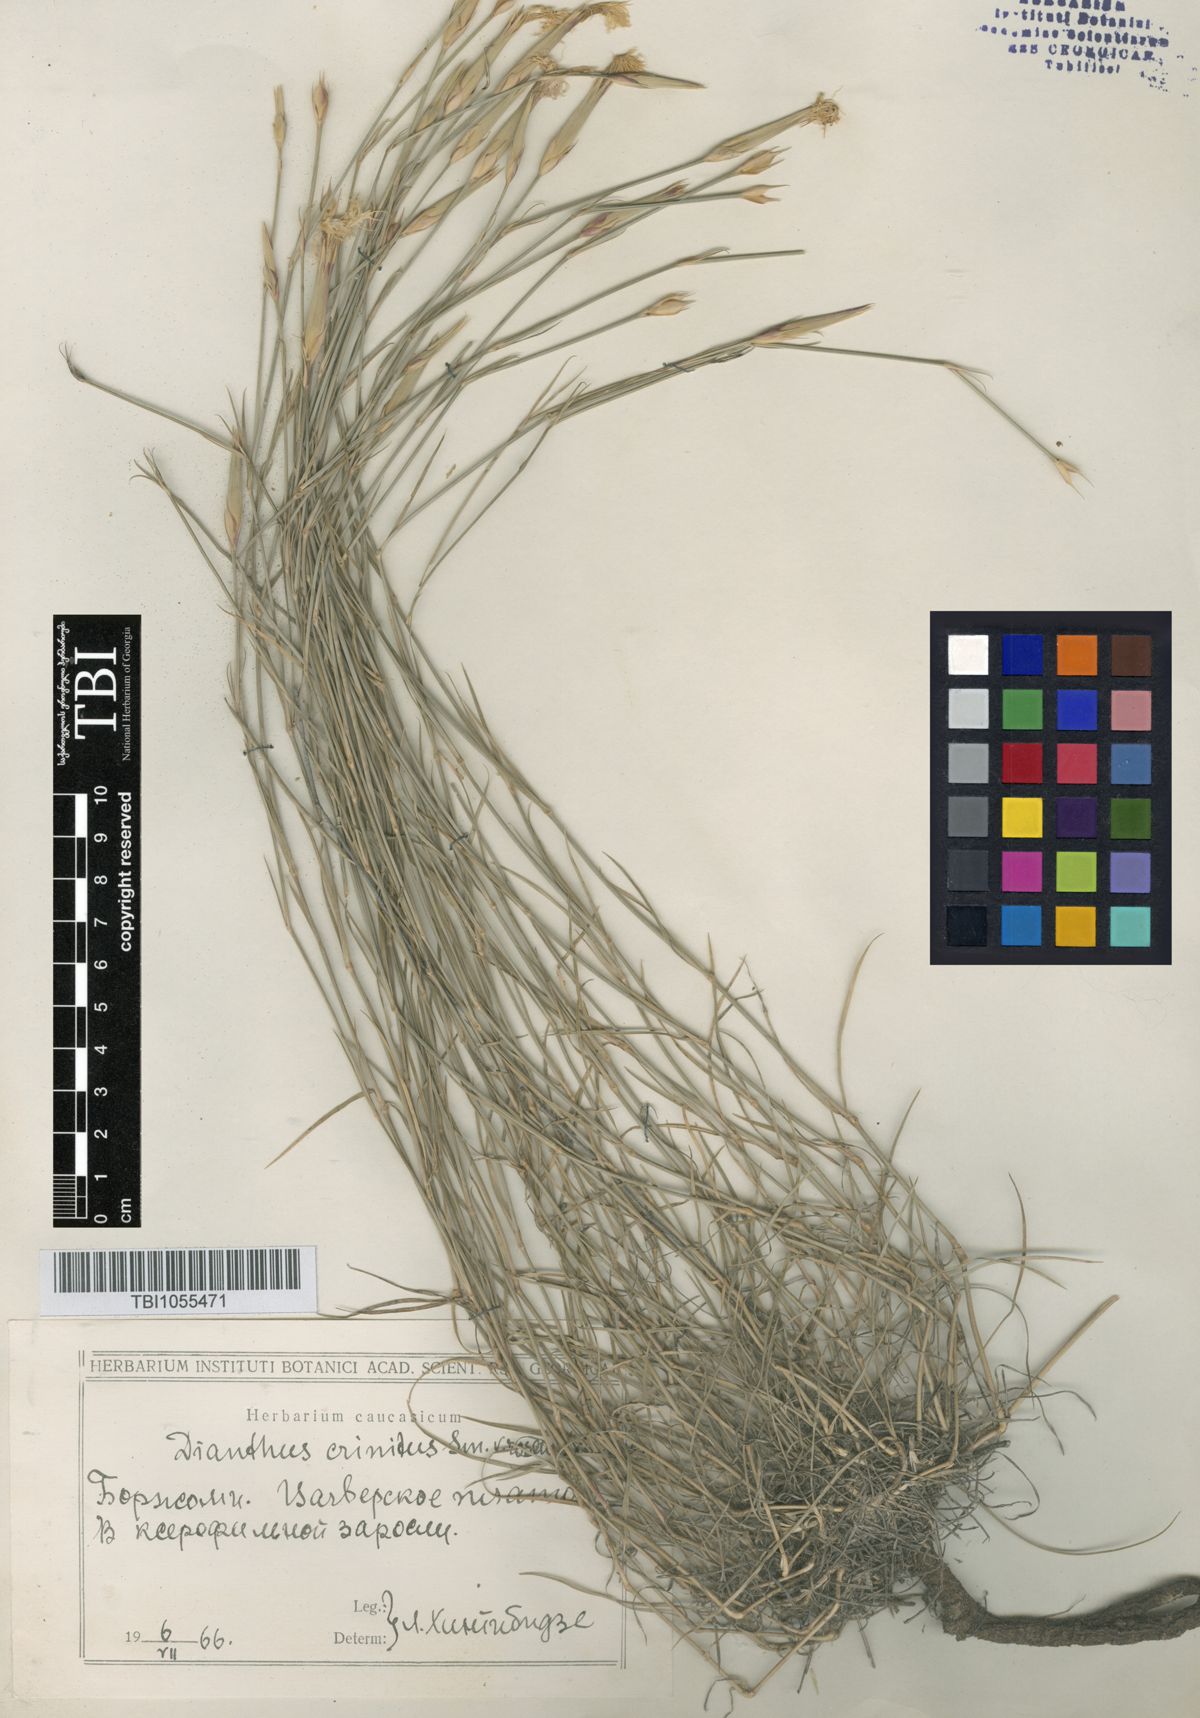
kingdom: Plantae
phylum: Tracheophyta
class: Magnoliopsida
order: Caryophyllales
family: Caryophyllaceae
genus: Dianthus
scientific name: Dianthus crinitus
